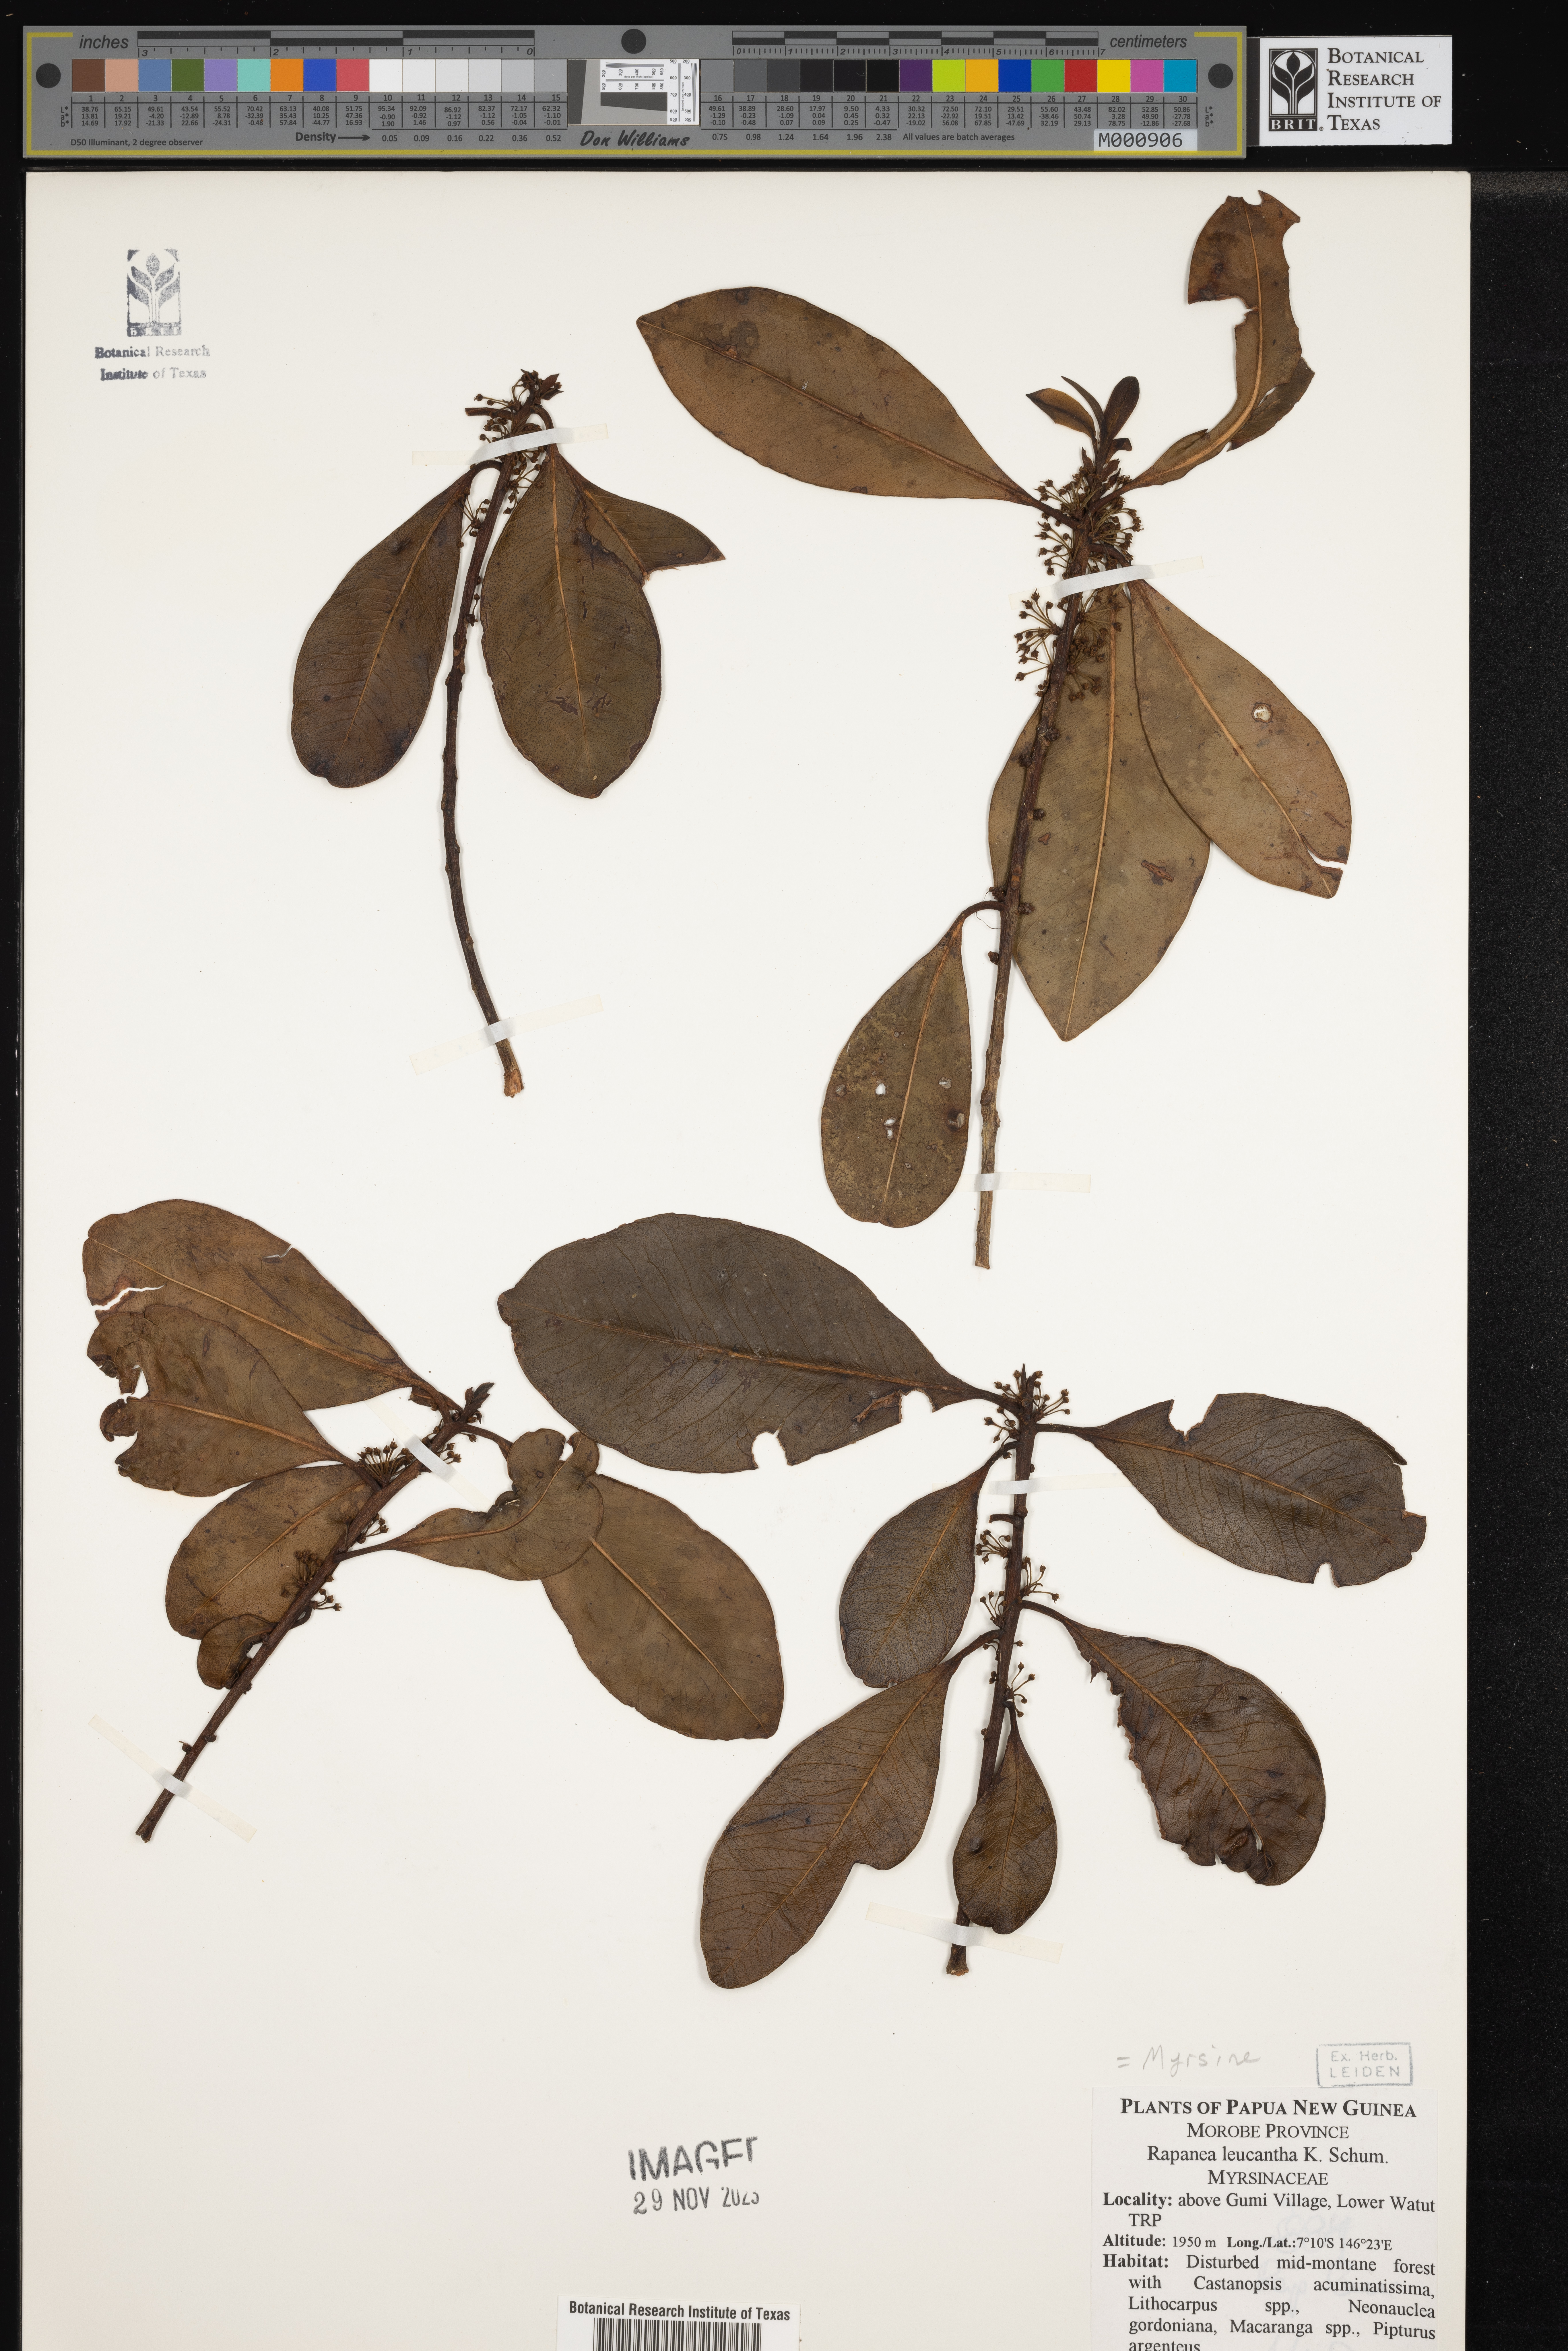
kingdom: Plantae
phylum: Tracheophyta
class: Magnoliopsida
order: Ericales
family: Primulaceae
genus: Myrsine
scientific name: Myrsine
